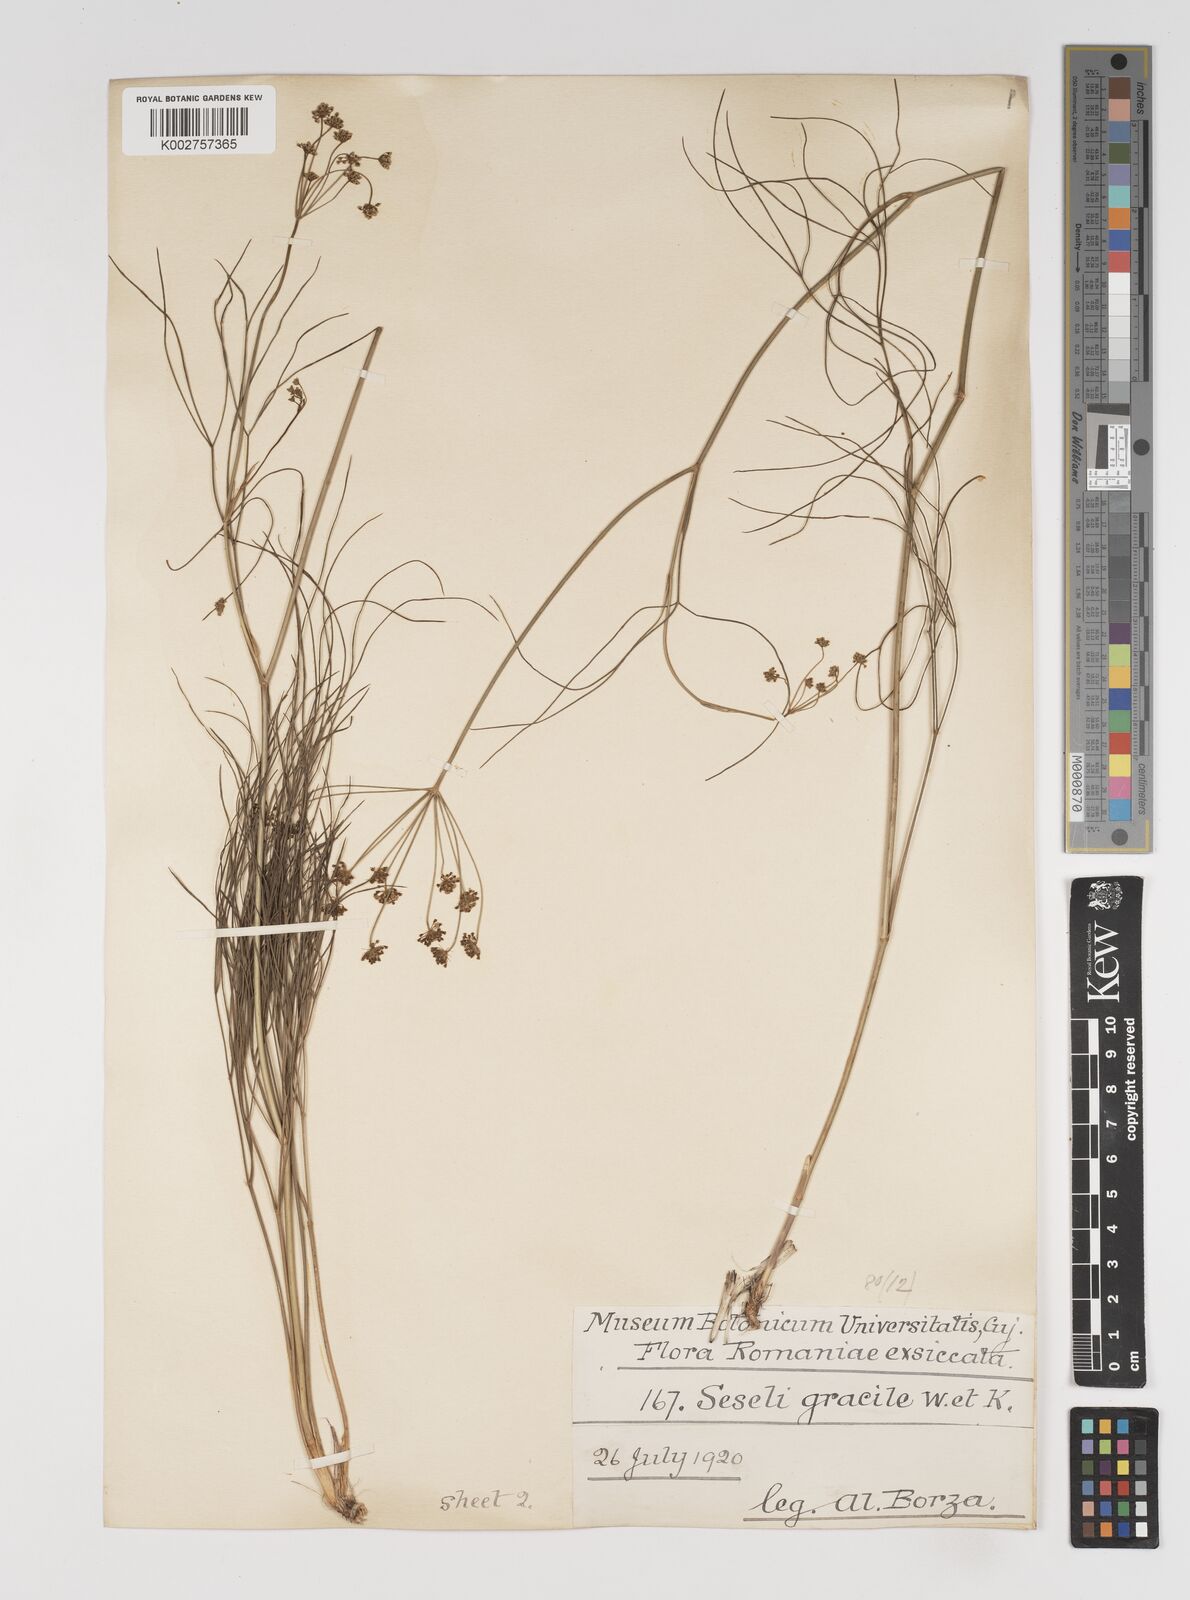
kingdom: Plantae
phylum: Tracheophyta
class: Magnoliopsida
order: Apiales
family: Apiaceae
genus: Seseli
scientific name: Seseli gracile
